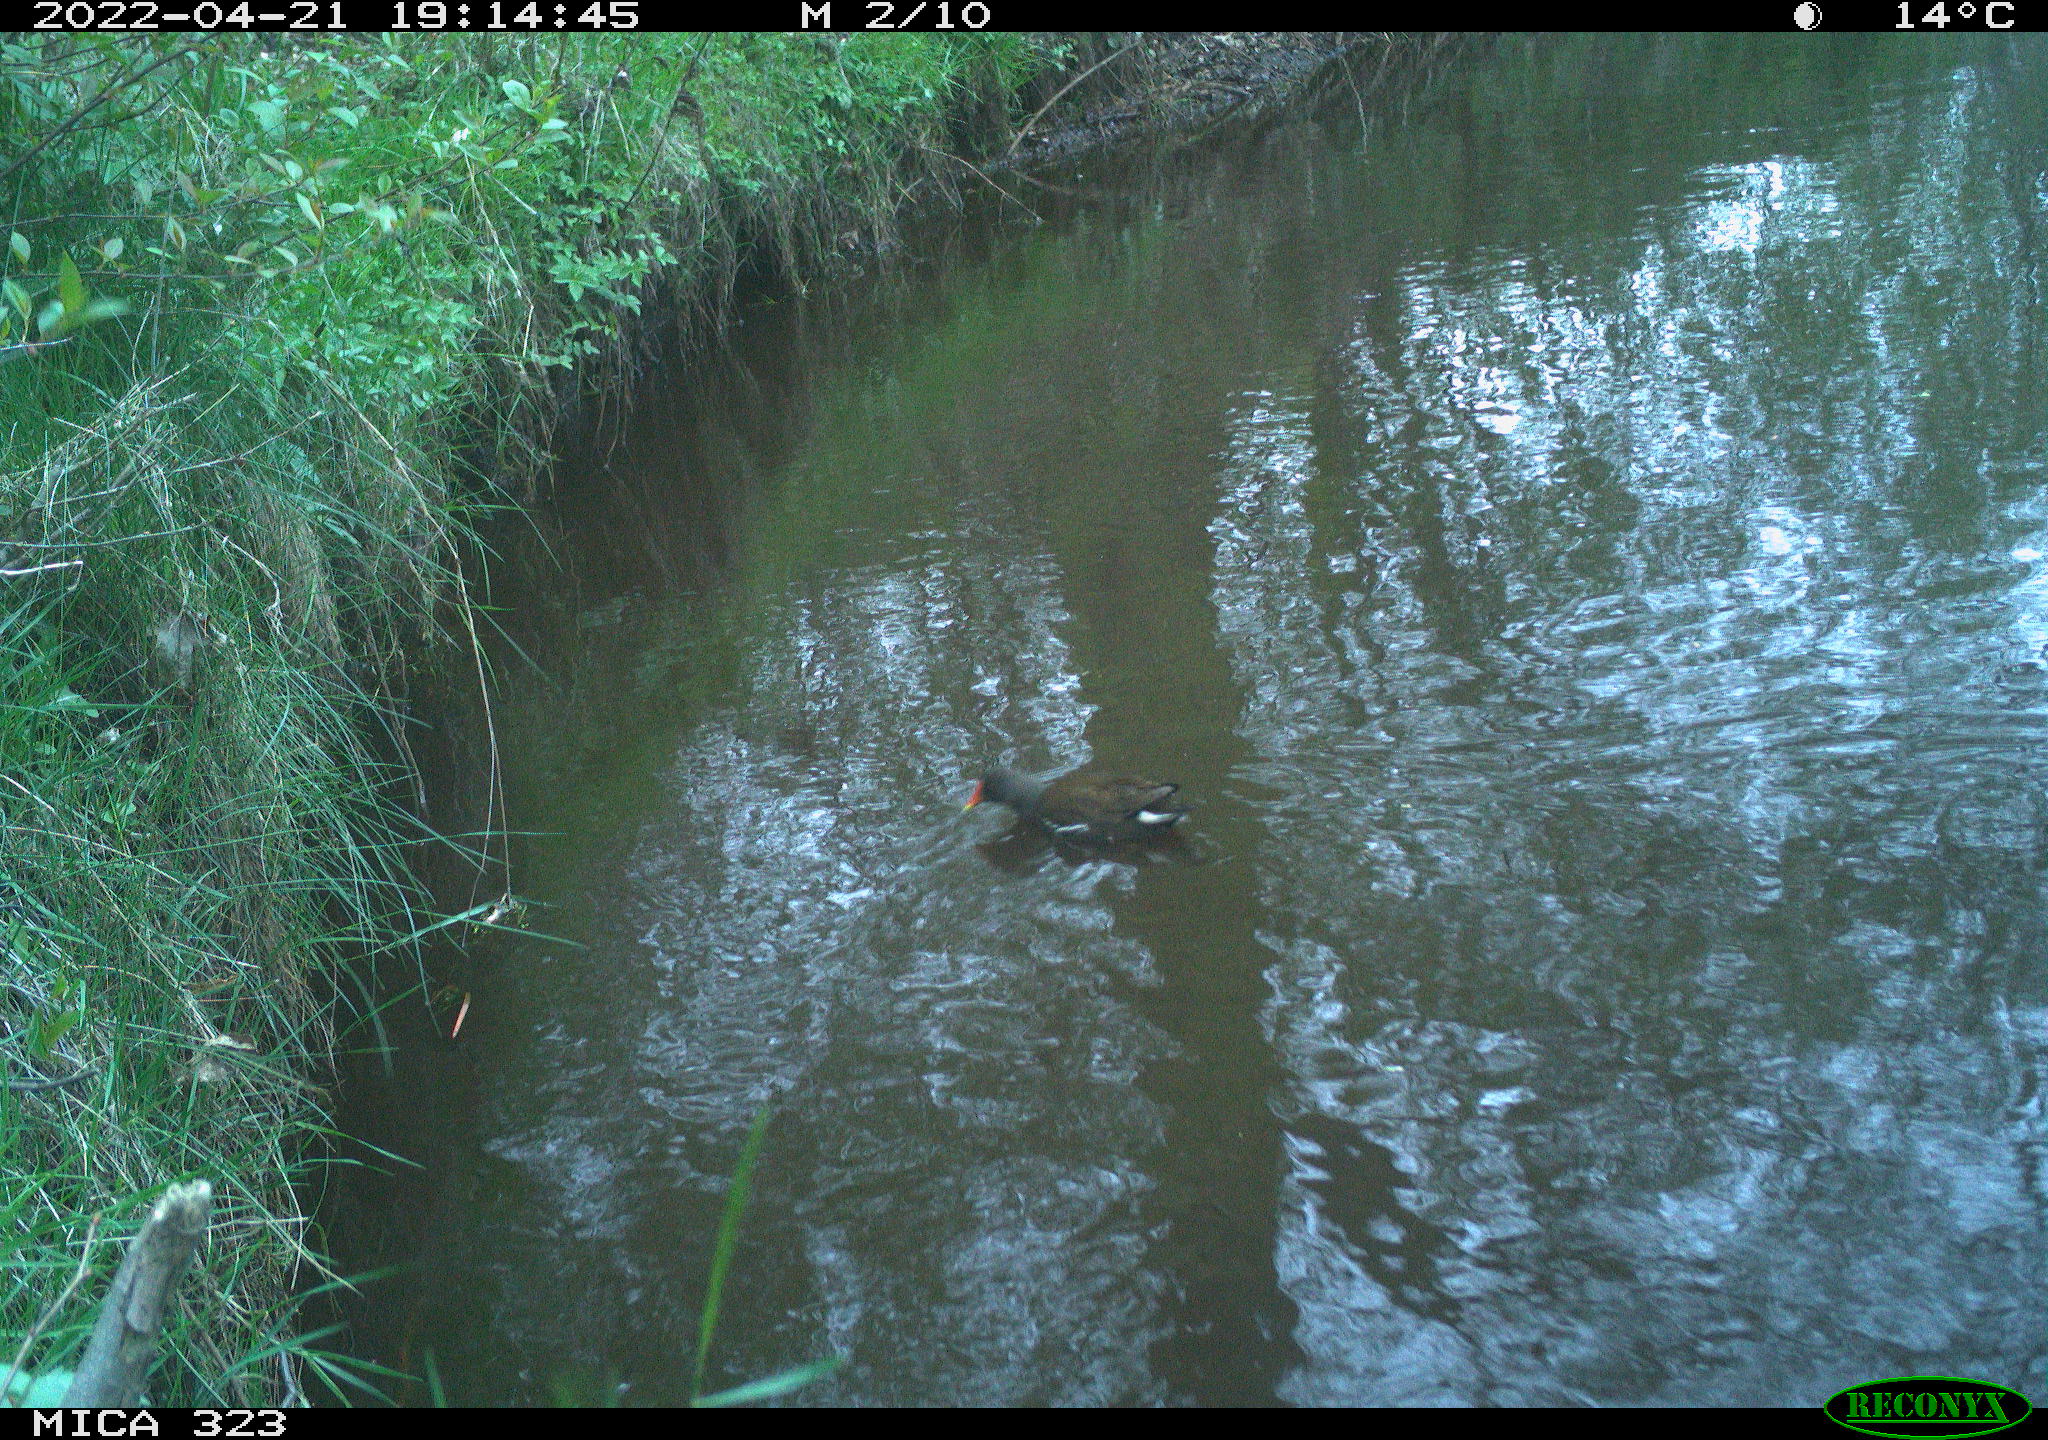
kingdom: Animalia
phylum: Chordata
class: Aves
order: Gruiformes
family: Rallidae
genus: Gallinula
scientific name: Gallinula chloropus
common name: Common moorhen
